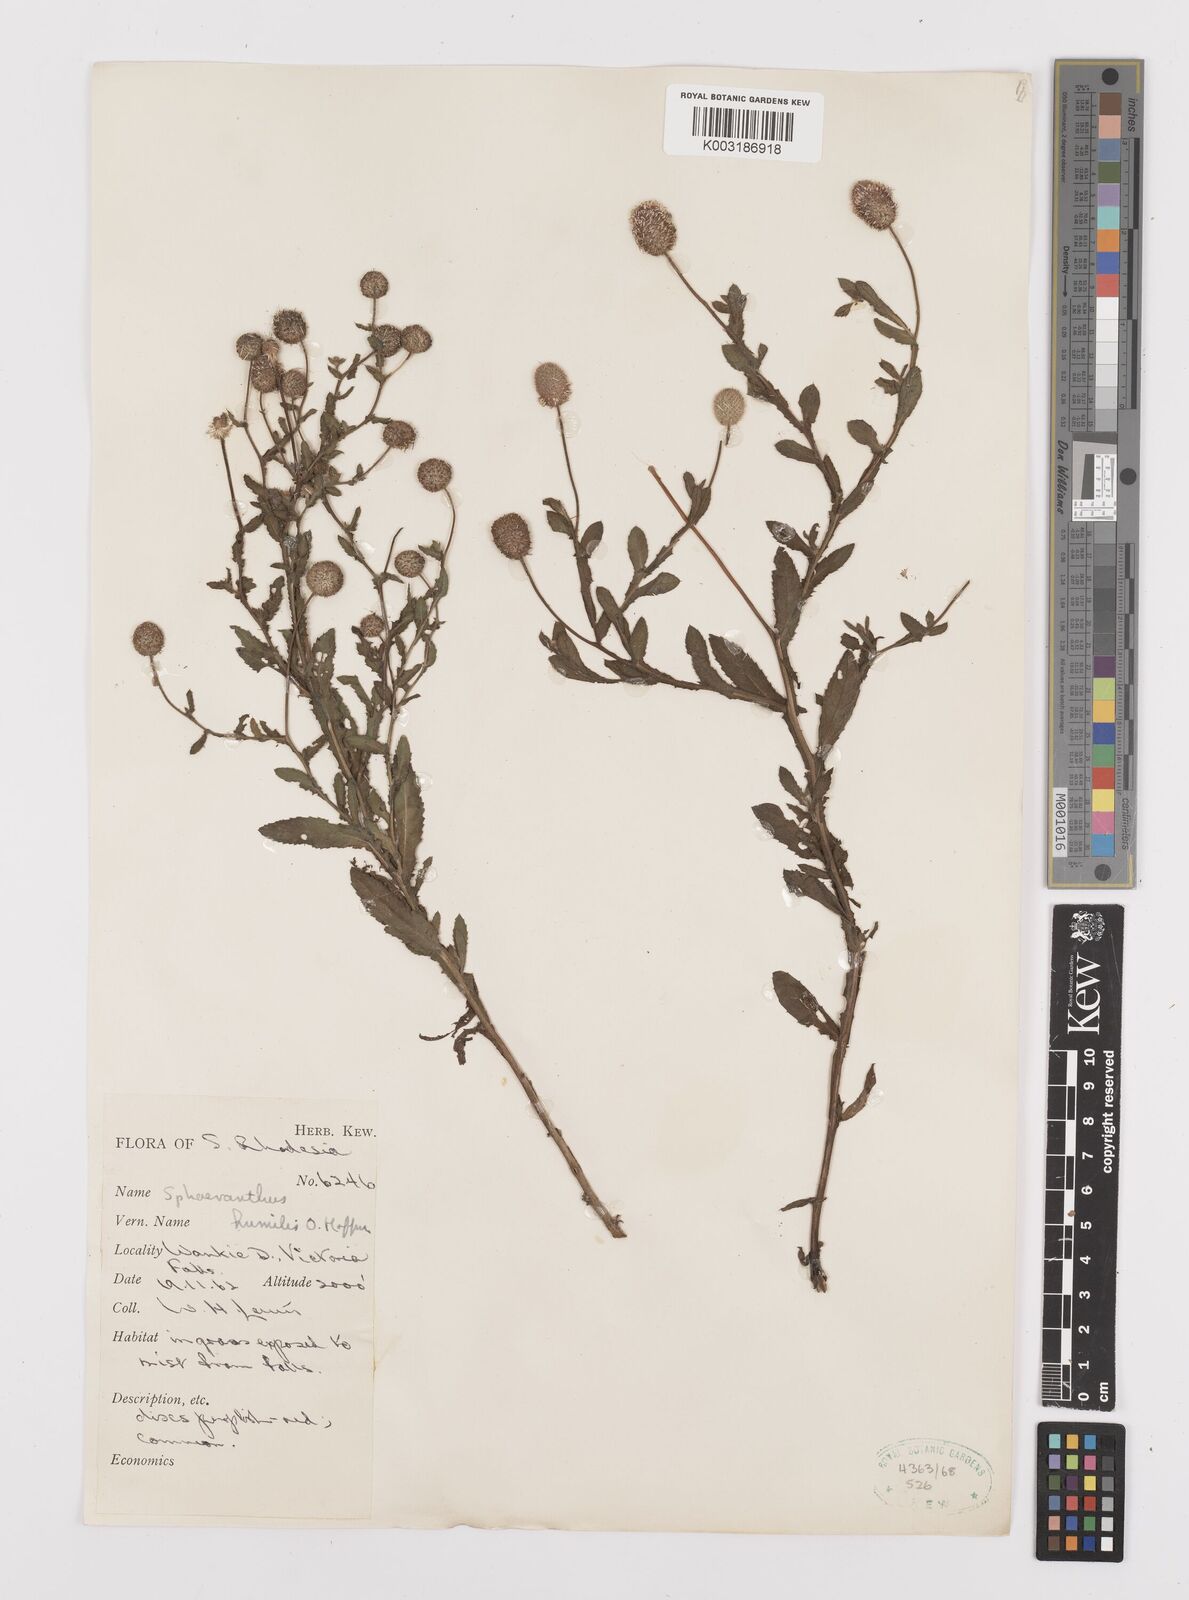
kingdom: Plantae
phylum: Tracheophyta
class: Magnoliopsida
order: Asterales
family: Asteraceae
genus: Sphaeranthus
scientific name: Sphaeranthus flexuosus
